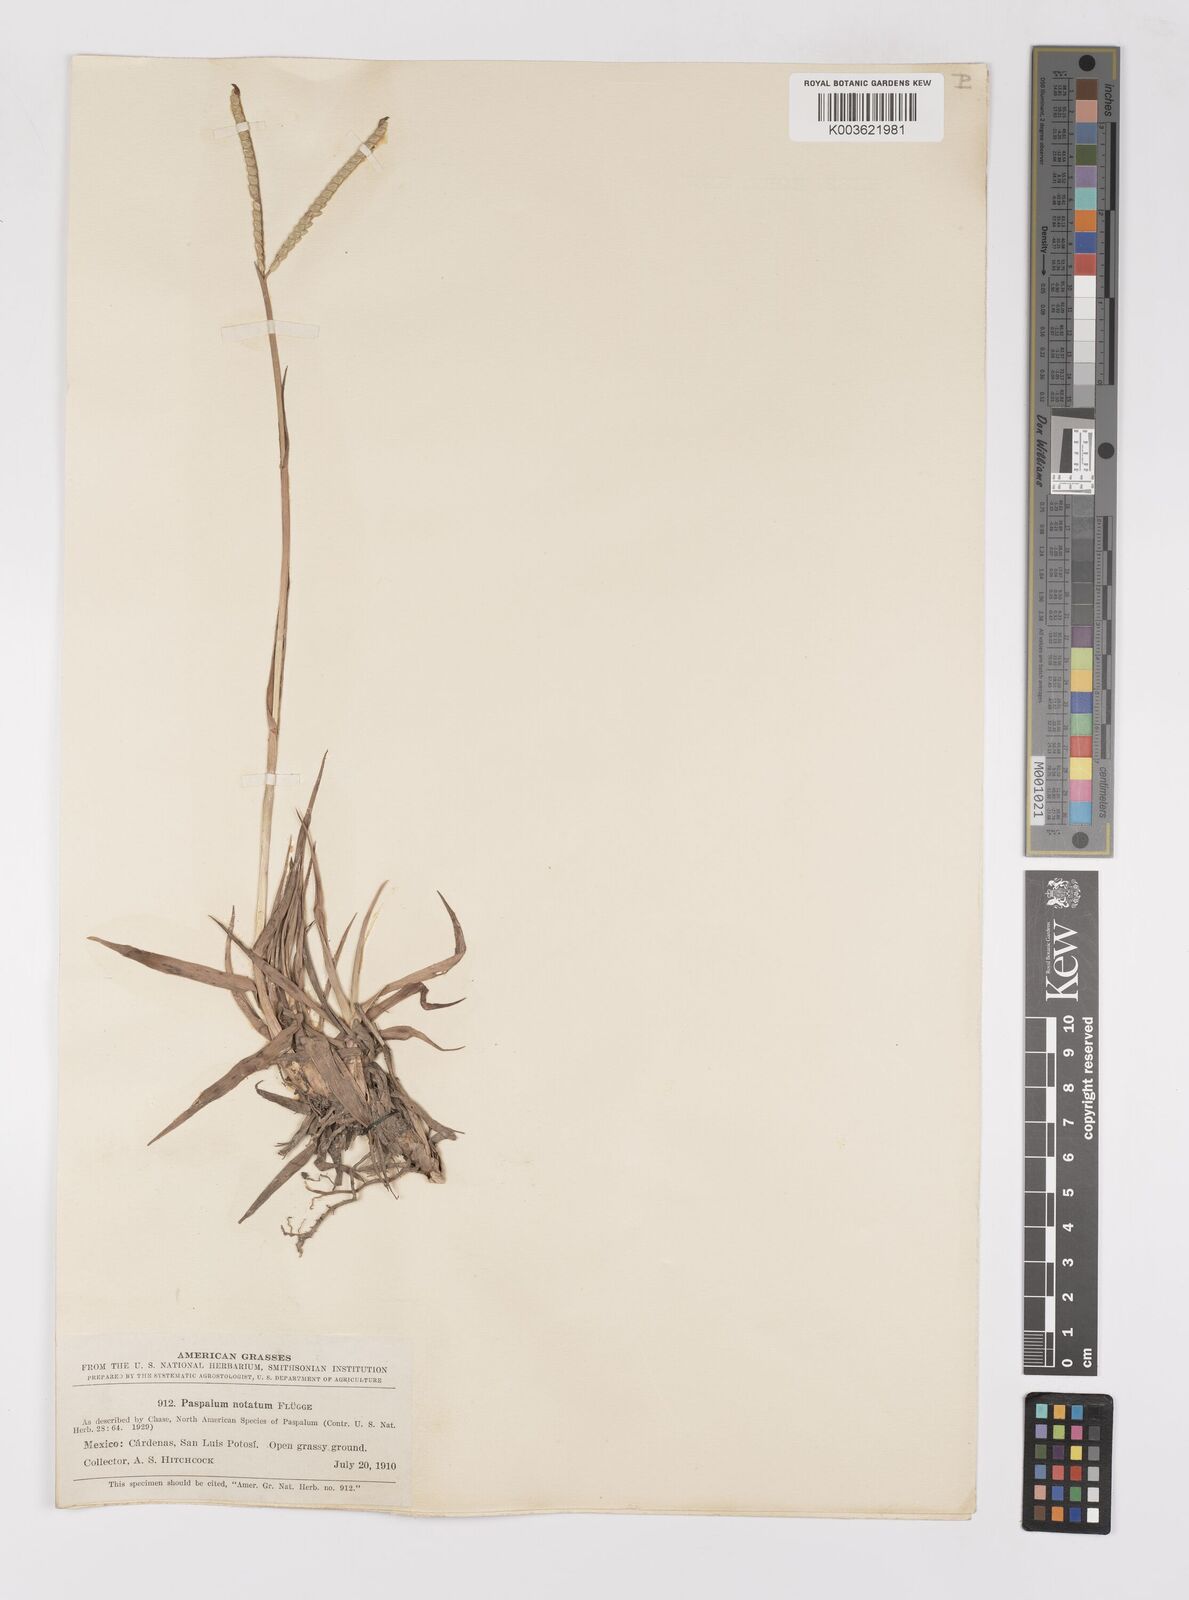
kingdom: Plantae
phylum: Tracheophyta
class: Liliopsida
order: Poales
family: Poaceae
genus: Paspalum
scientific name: Paspalum notatum
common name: Bahiagrass
